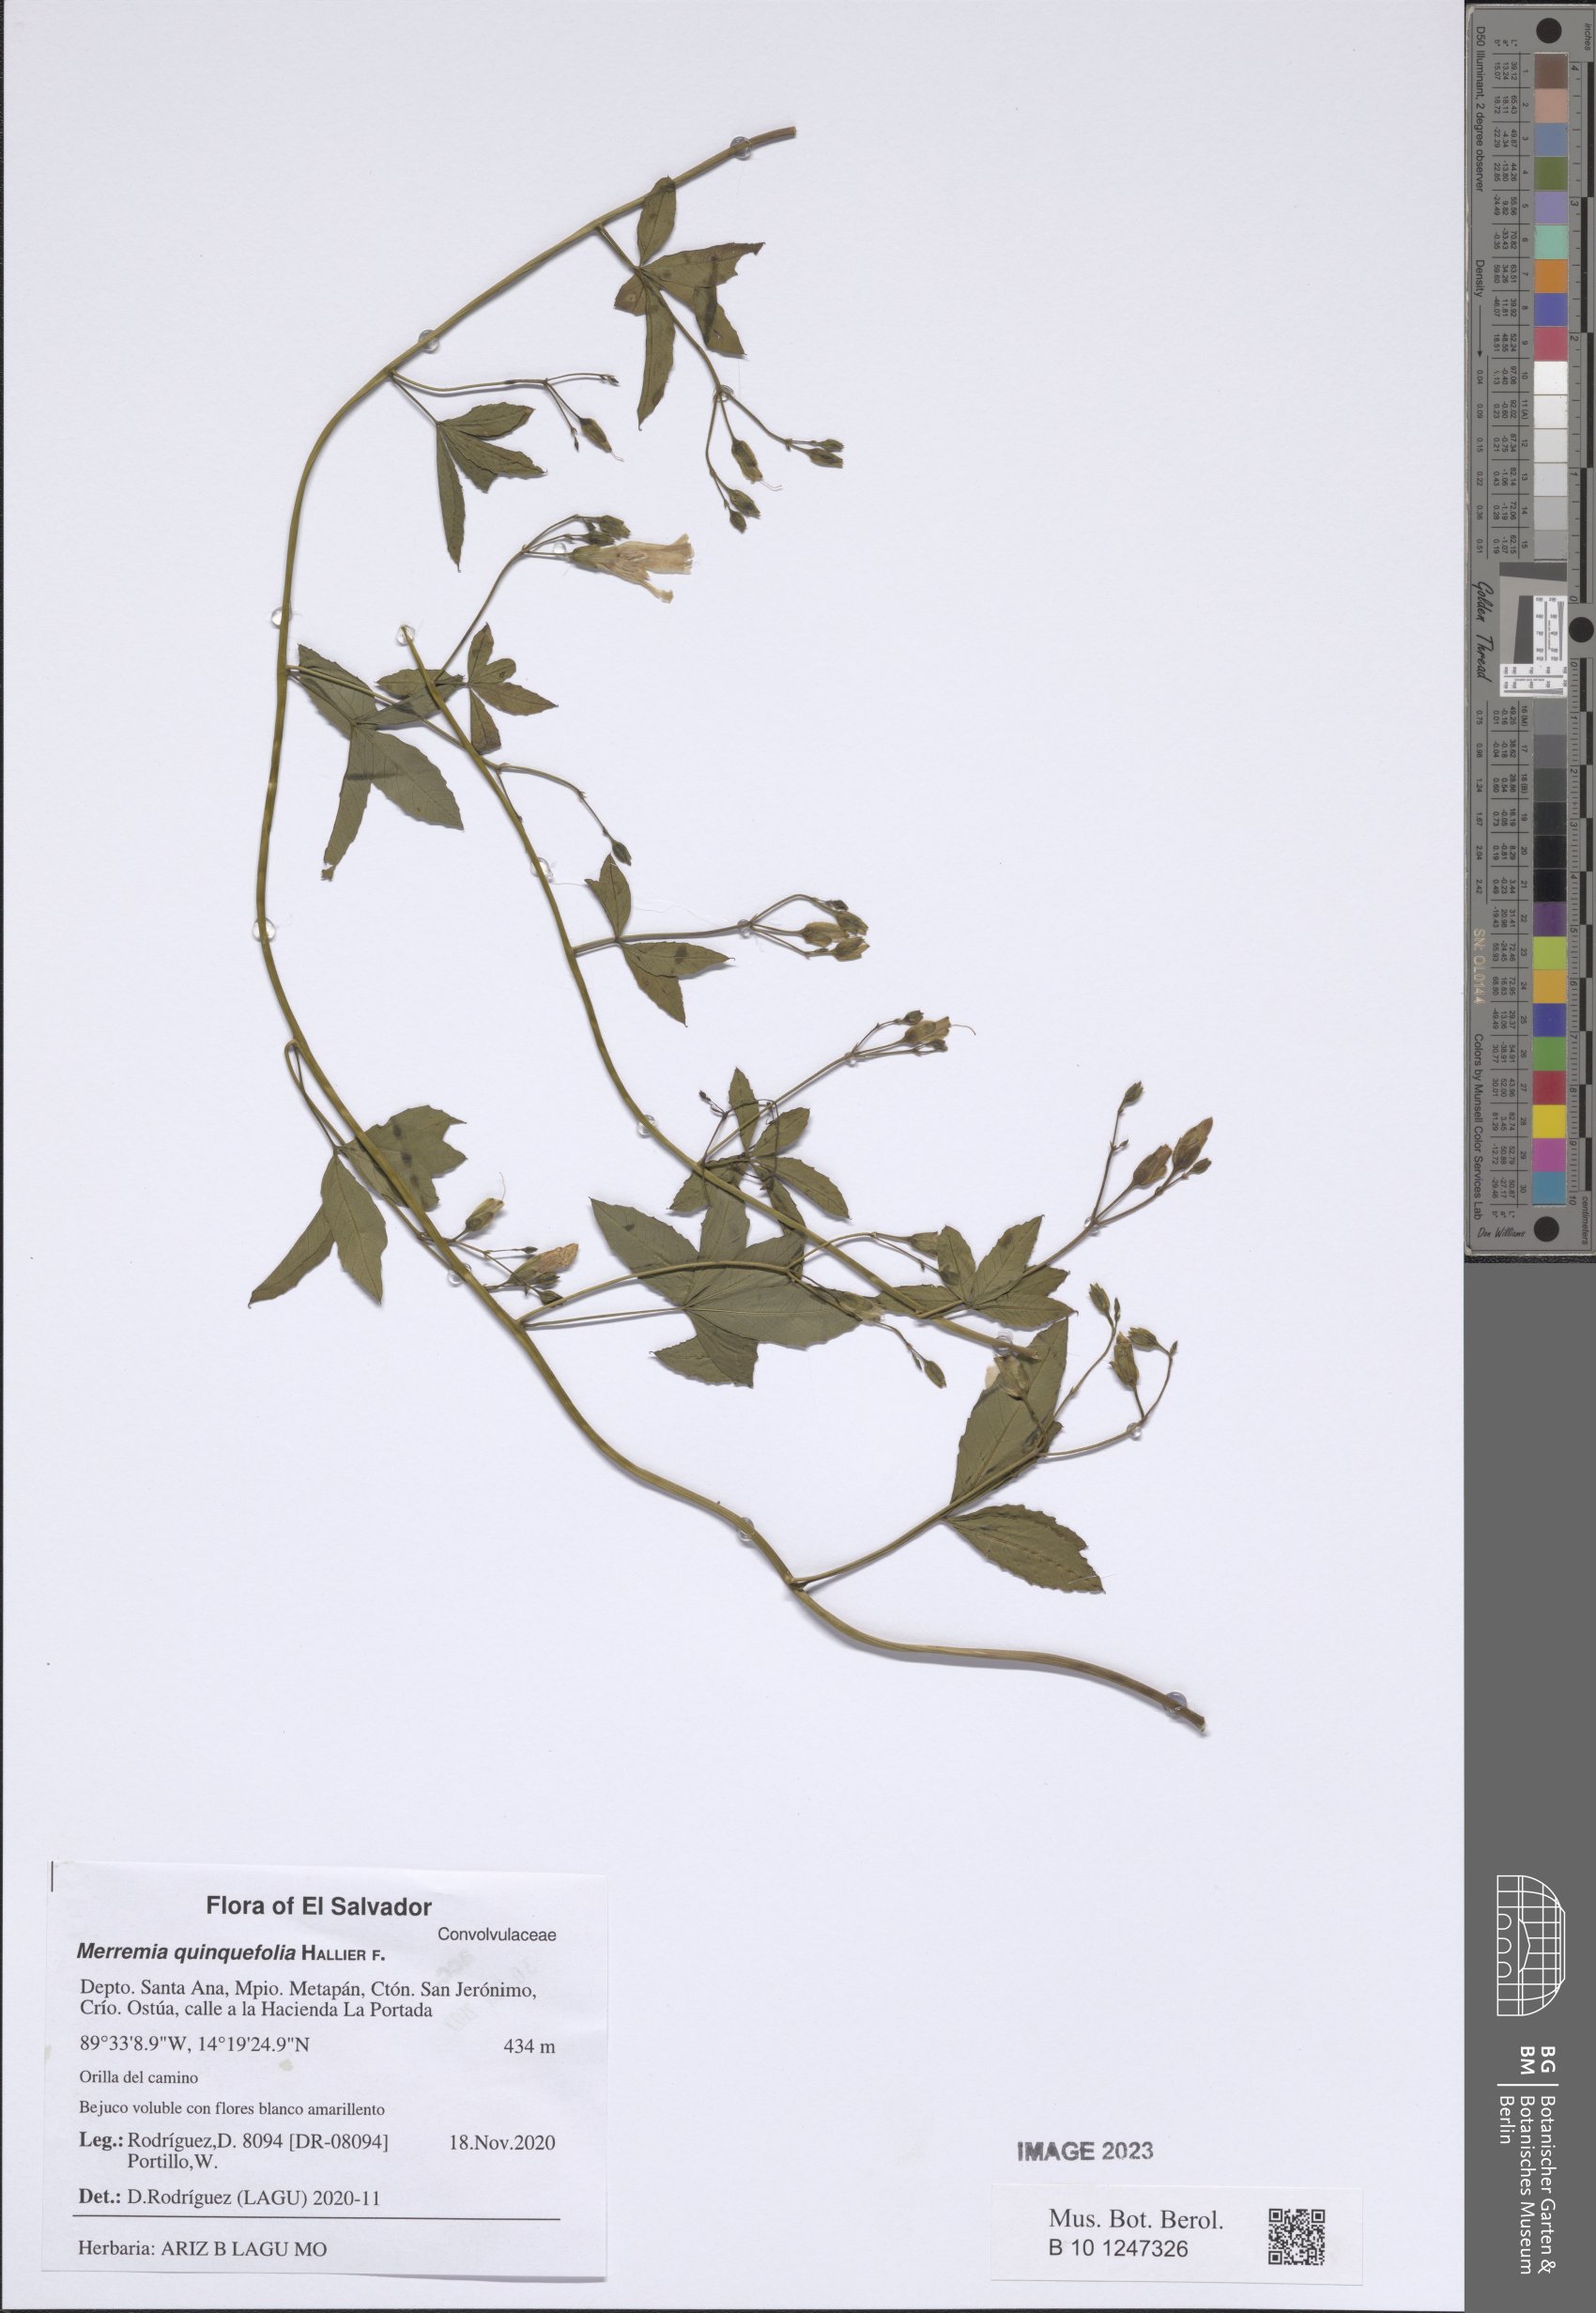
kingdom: Plantae
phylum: Tracheophyta
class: Magnoliopsida
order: Solanales
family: Convolvulaceae
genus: Distimake
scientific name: Distimake quinquefolius
